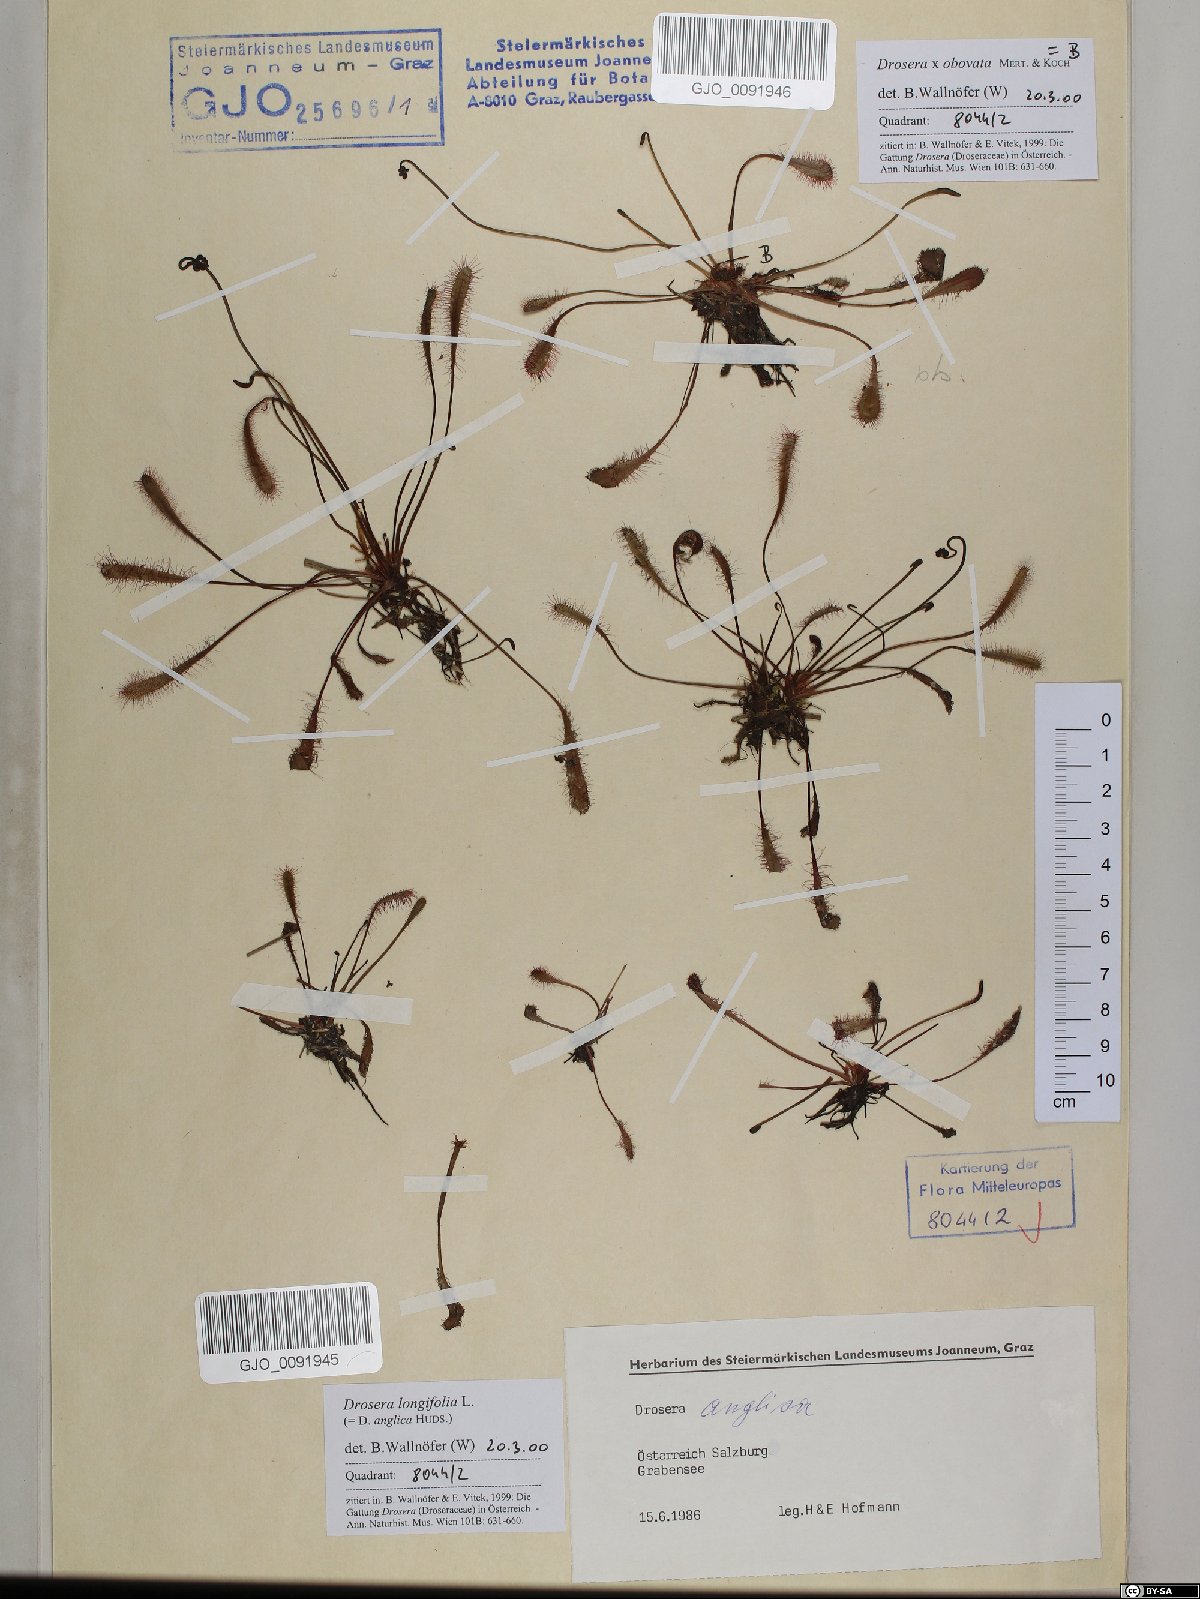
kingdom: Plantae
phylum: Tracheophyta
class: Magnoliopsida
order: Caryophyllales
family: Droseraceae
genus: Drosera
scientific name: Drosera anglica
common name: Great sundew
